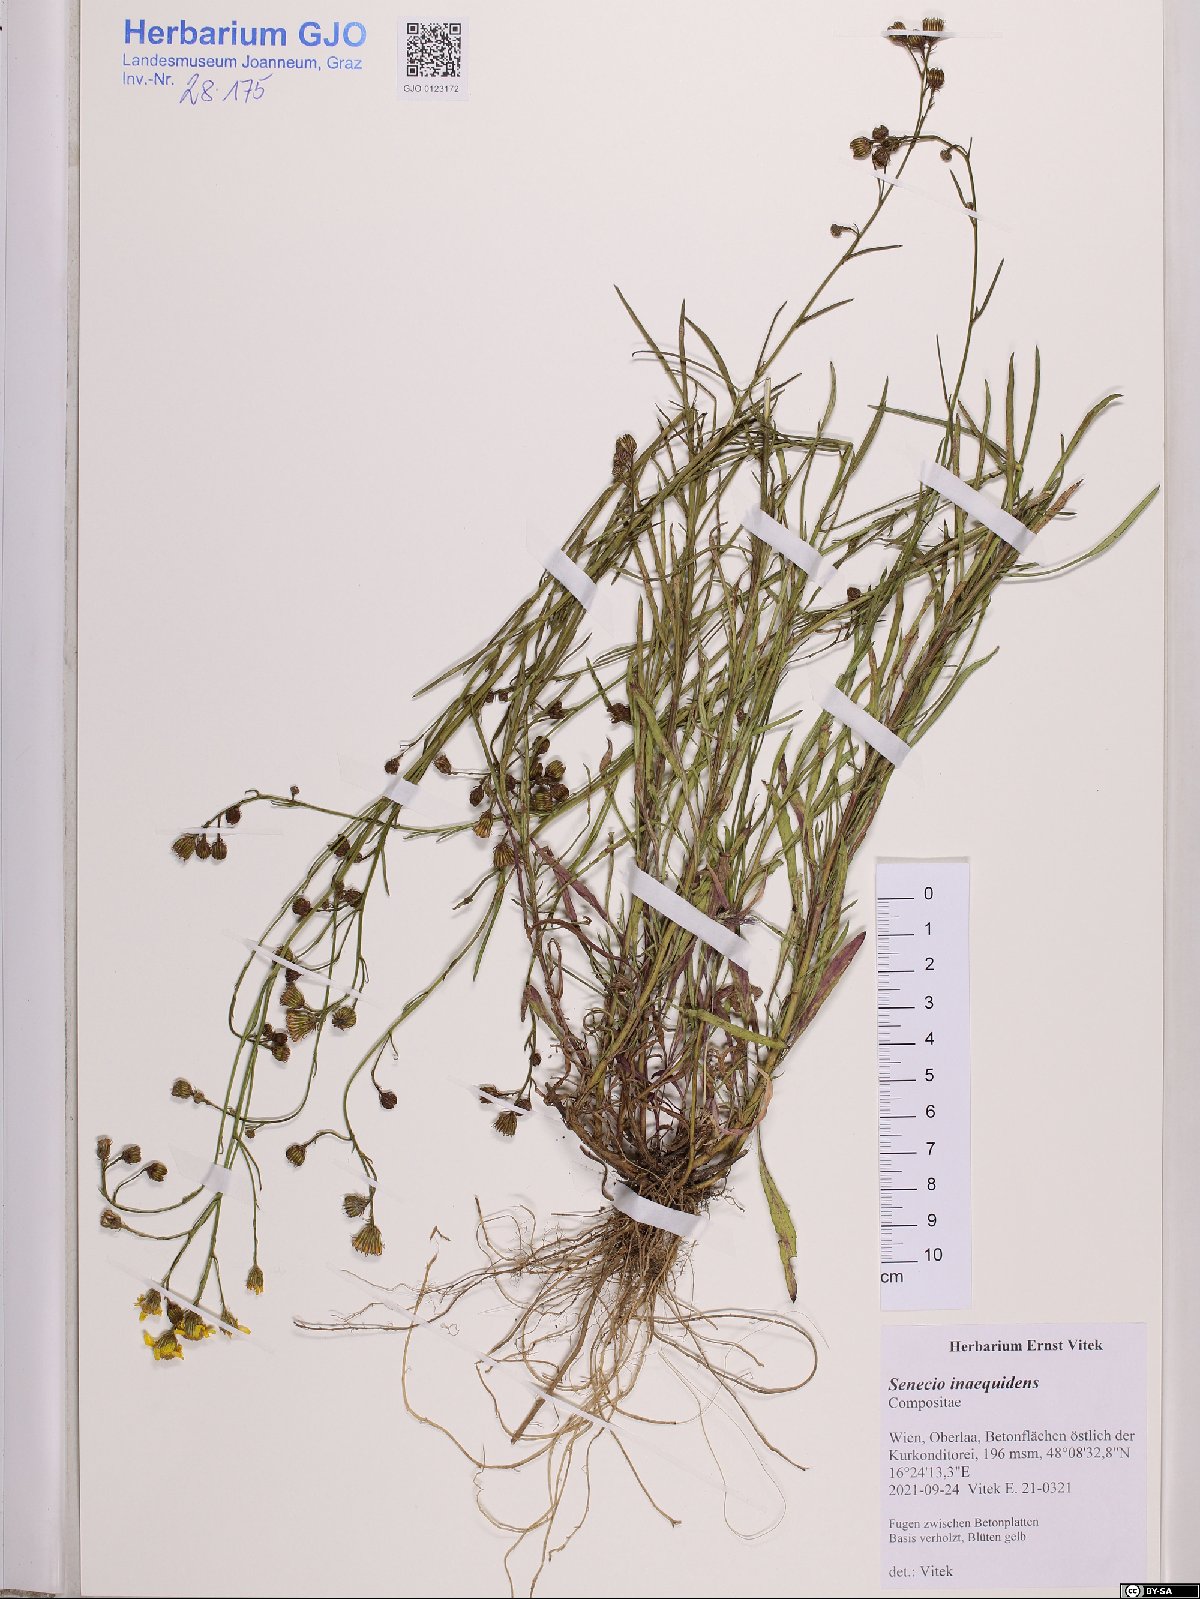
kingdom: Plantae
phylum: Tracheophyta
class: Magnoliopsida
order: Asterales
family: Asteraceae
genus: Senecio
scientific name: Senecio inaequidens
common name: Narrow-leaved ragwort
